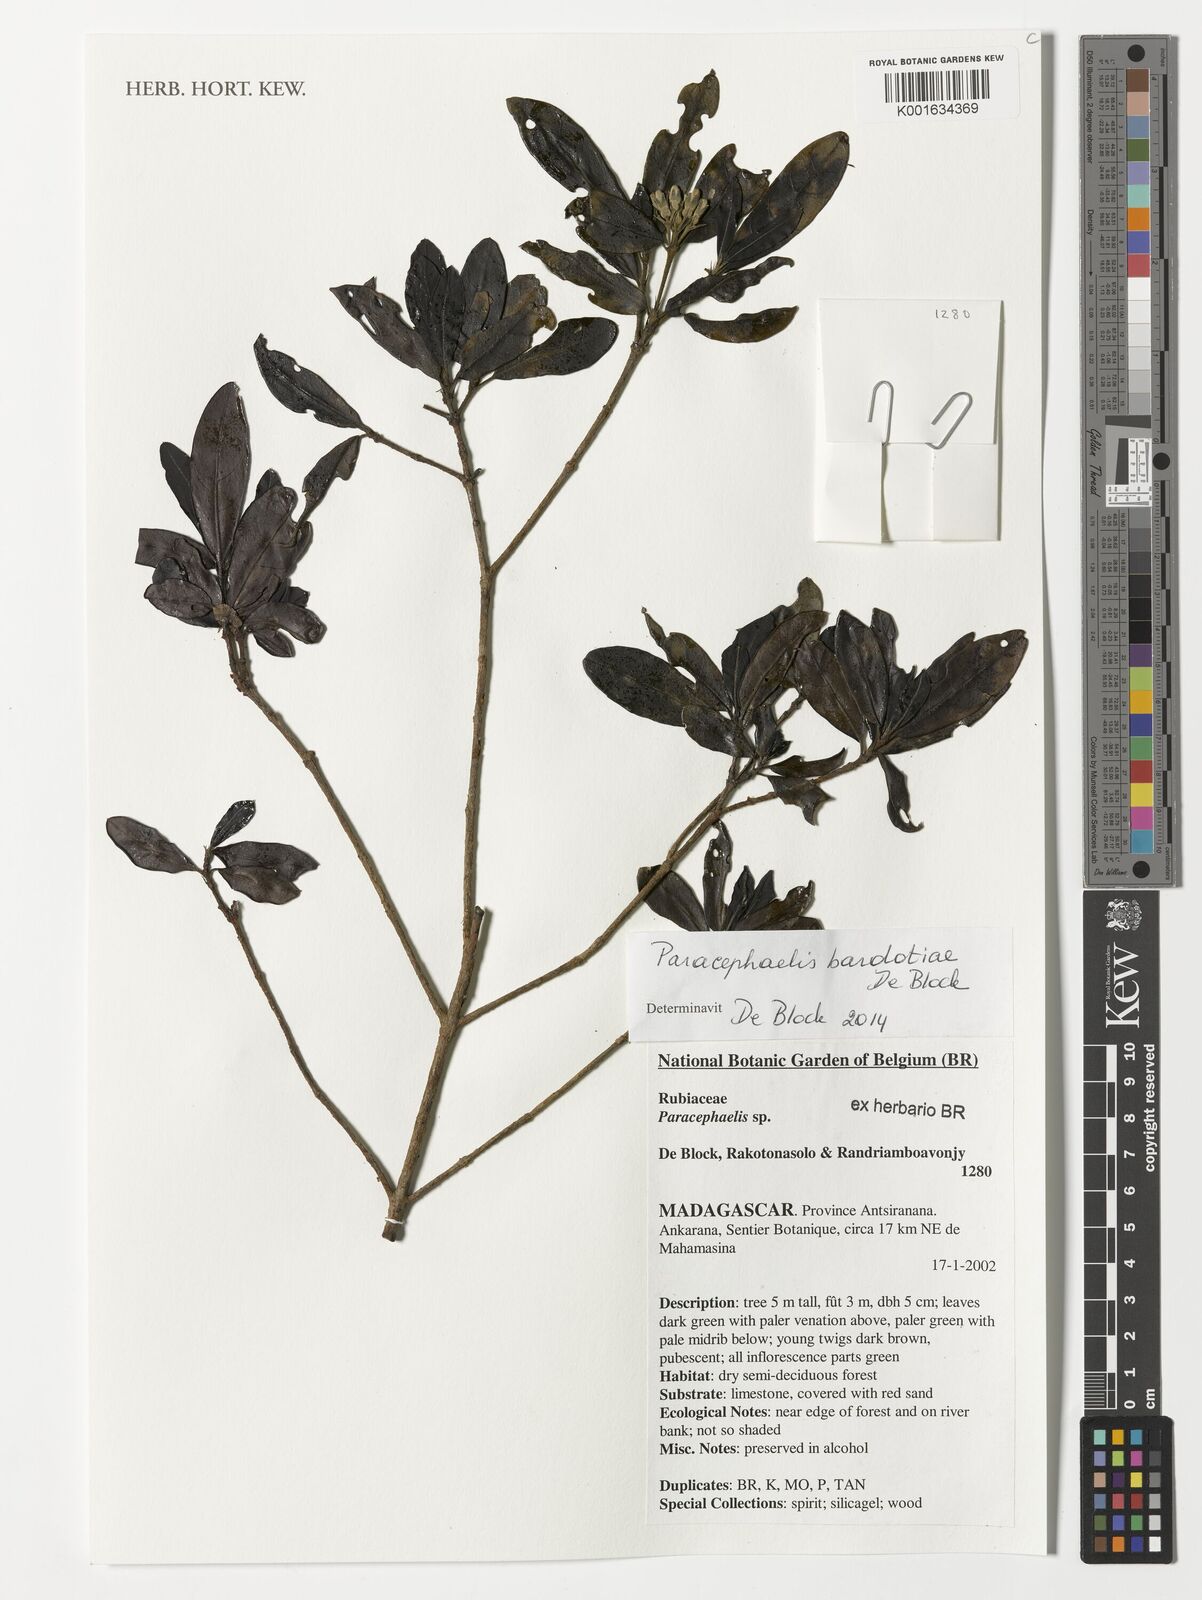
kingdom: Plantae
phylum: Tracheophyta
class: Magnoliopsida
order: Gentianales
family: Rubiaceae
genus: Paracephaelis
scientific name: Paracephaelis
